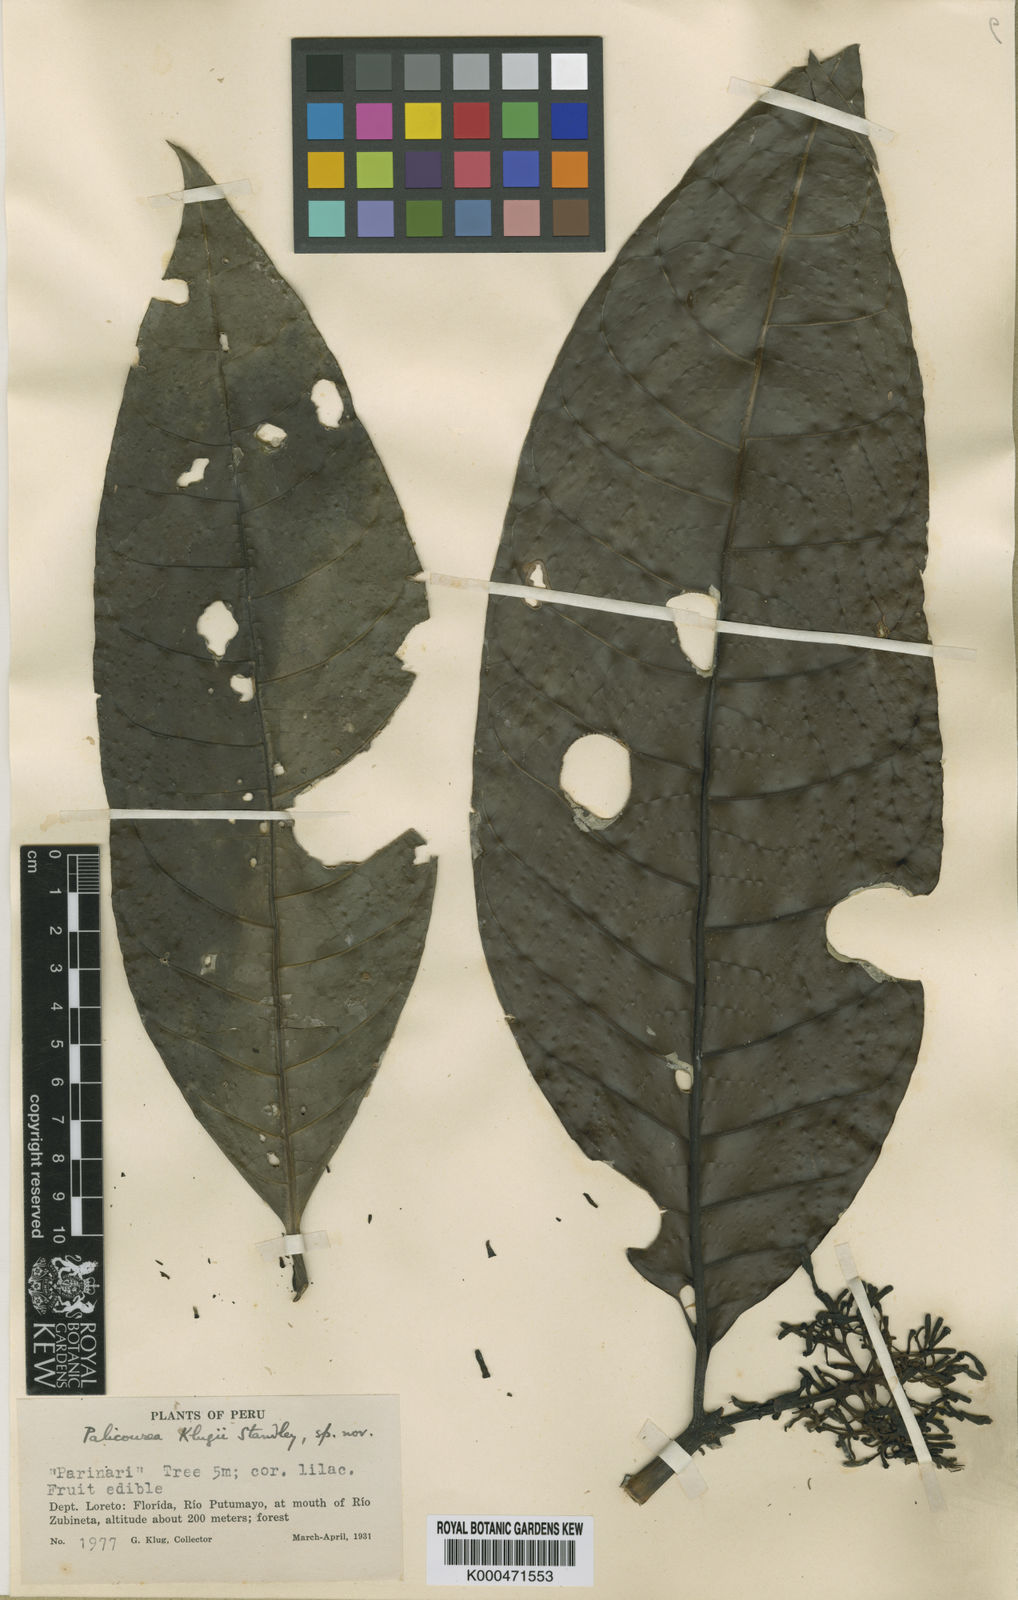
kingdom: Plantae
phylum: Tracheophyta
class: Magnoliopsida
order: Gentianales
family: Rubiaceae
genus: Palicourea
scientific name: Palicourea nigricans
